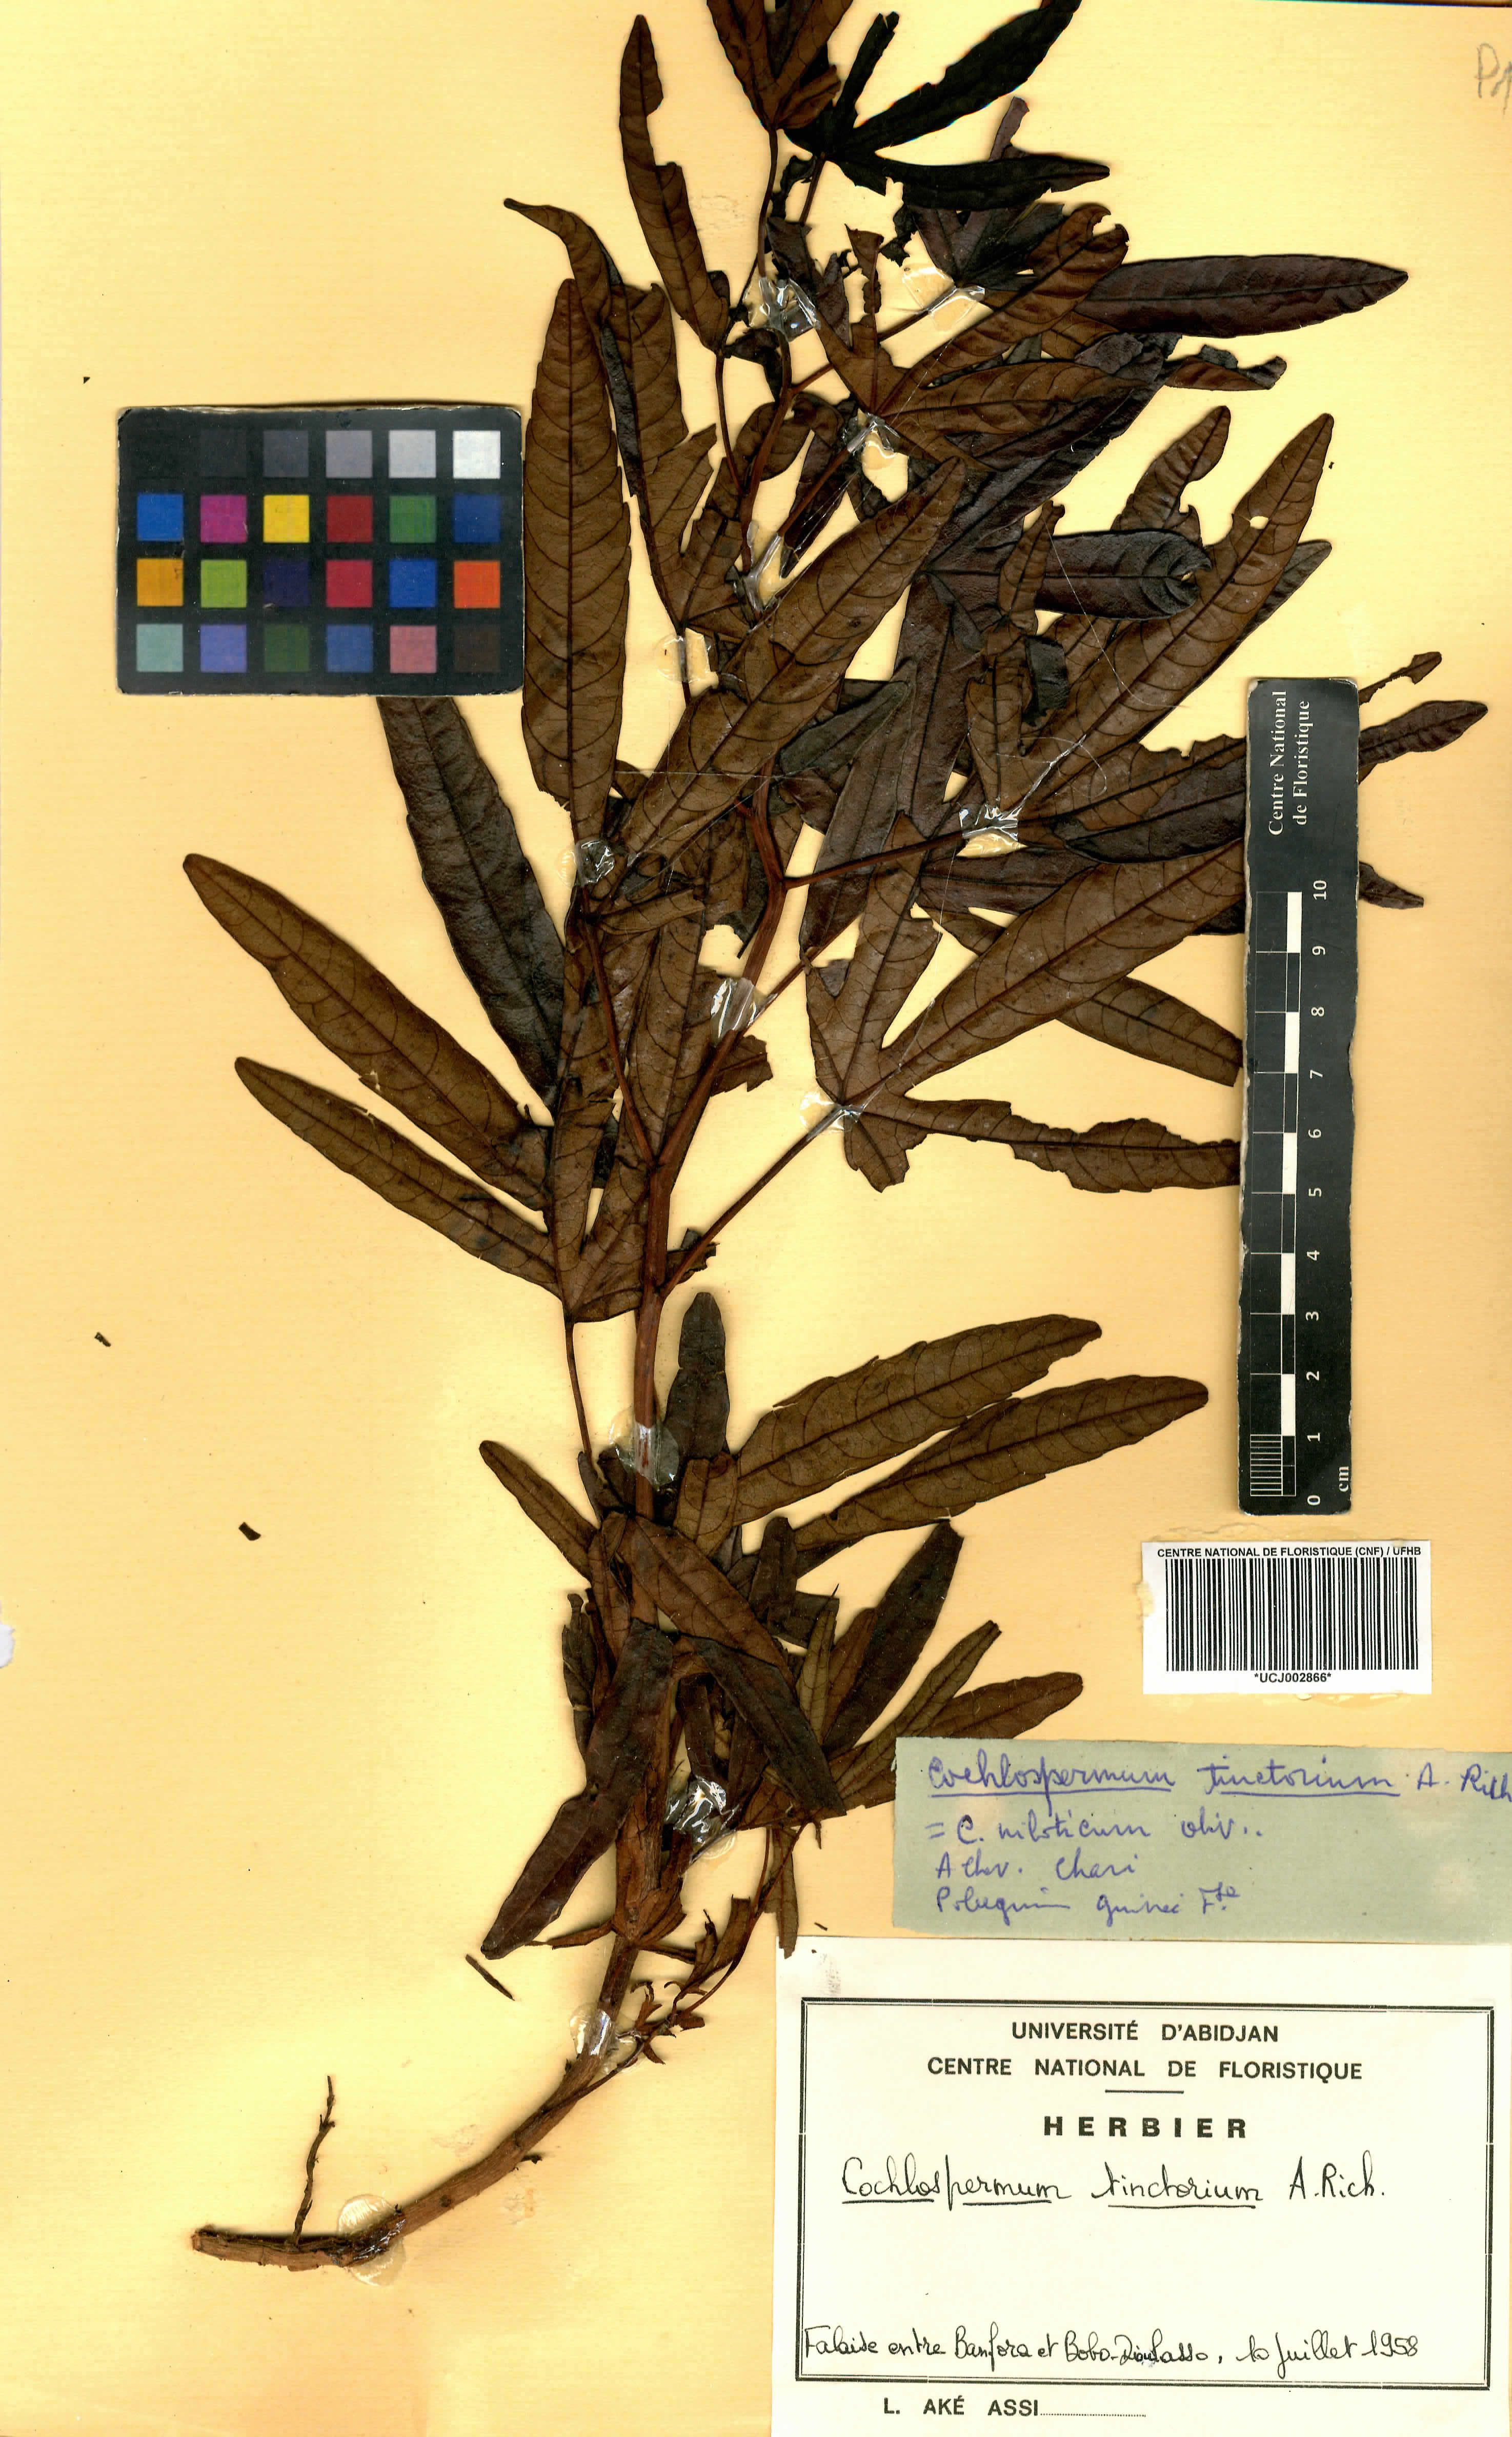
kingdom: Plantae
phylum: Tracheophyta
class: Magnoliopsida
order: Malvales
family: Cochlospermaceae
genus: Cochlospermum
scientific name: Cochlospermum tinctorium
